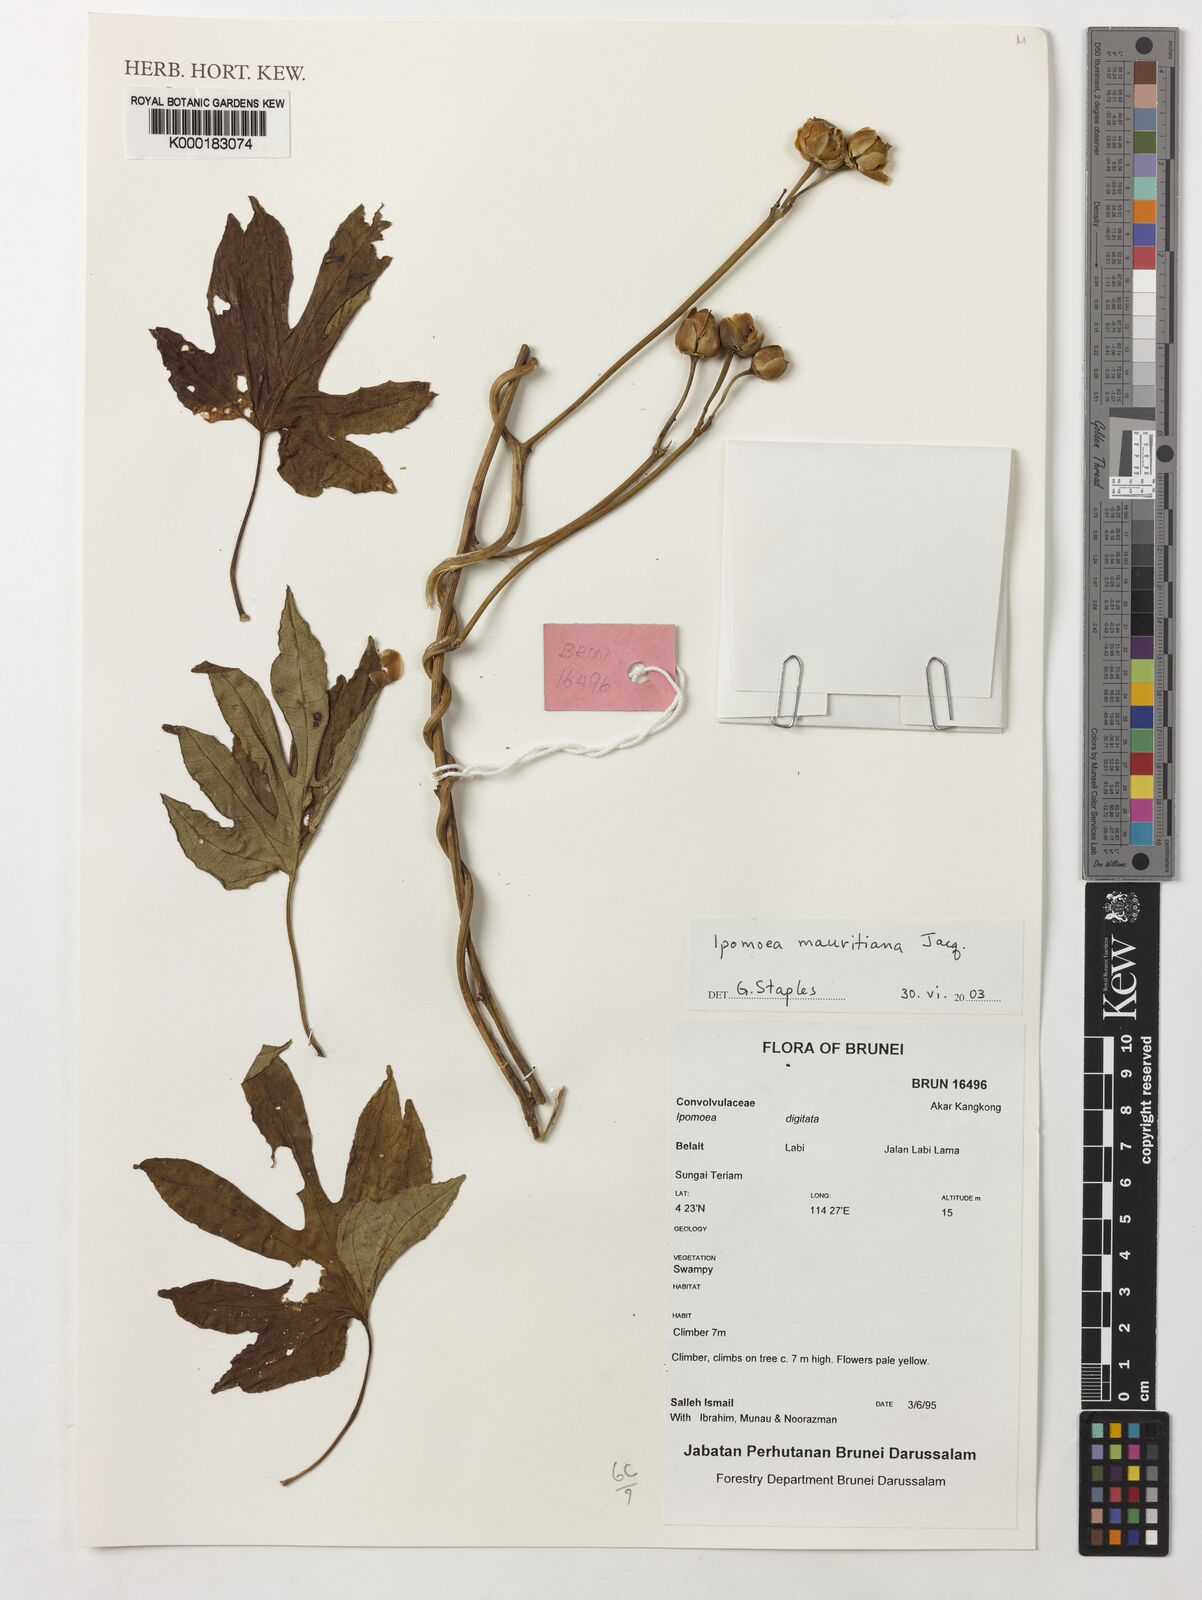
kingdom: Plantae
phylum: Tracheophyta
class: Magnoliopsida
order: Solanales
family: Convolvulaceae
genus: Ipomoea
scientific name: Ipomoea mauritiana
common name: Mauritanian convolvulus
